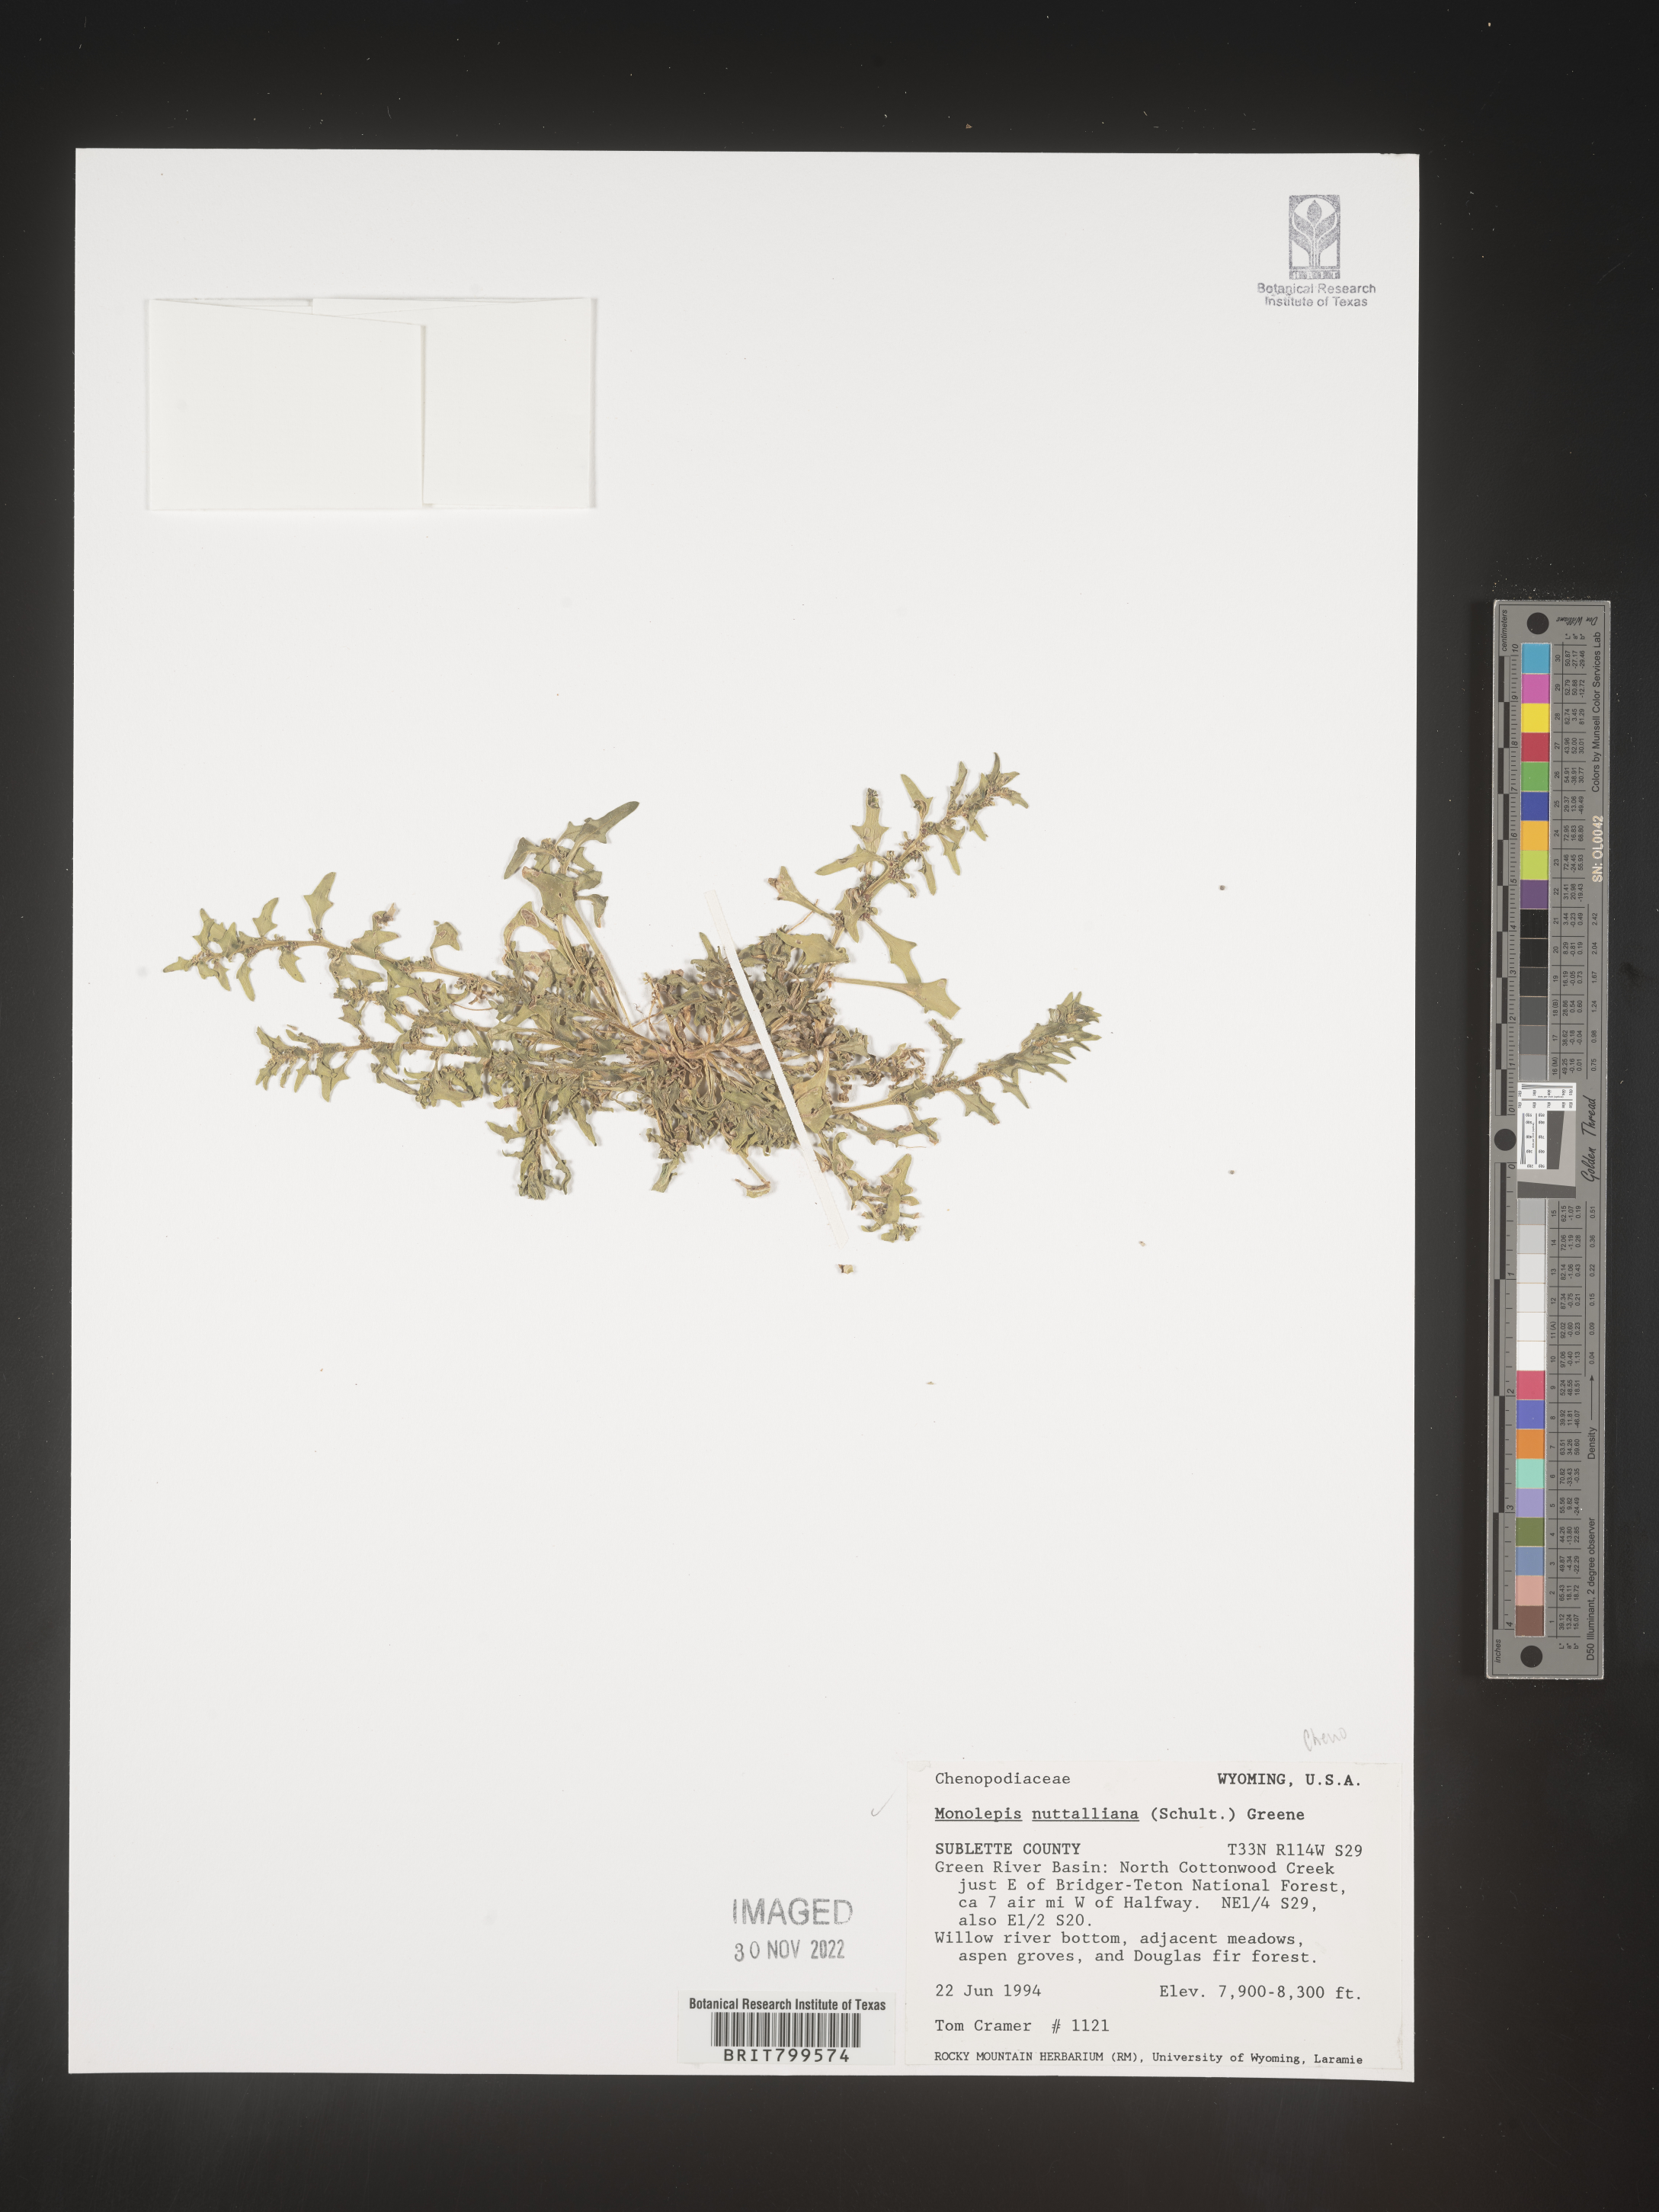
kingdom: Plantae
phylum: Tracheophyta
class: Magnoliopsida
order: Caryophyllales
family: Amaranthaceae
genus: Blitum
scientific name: Blitum
